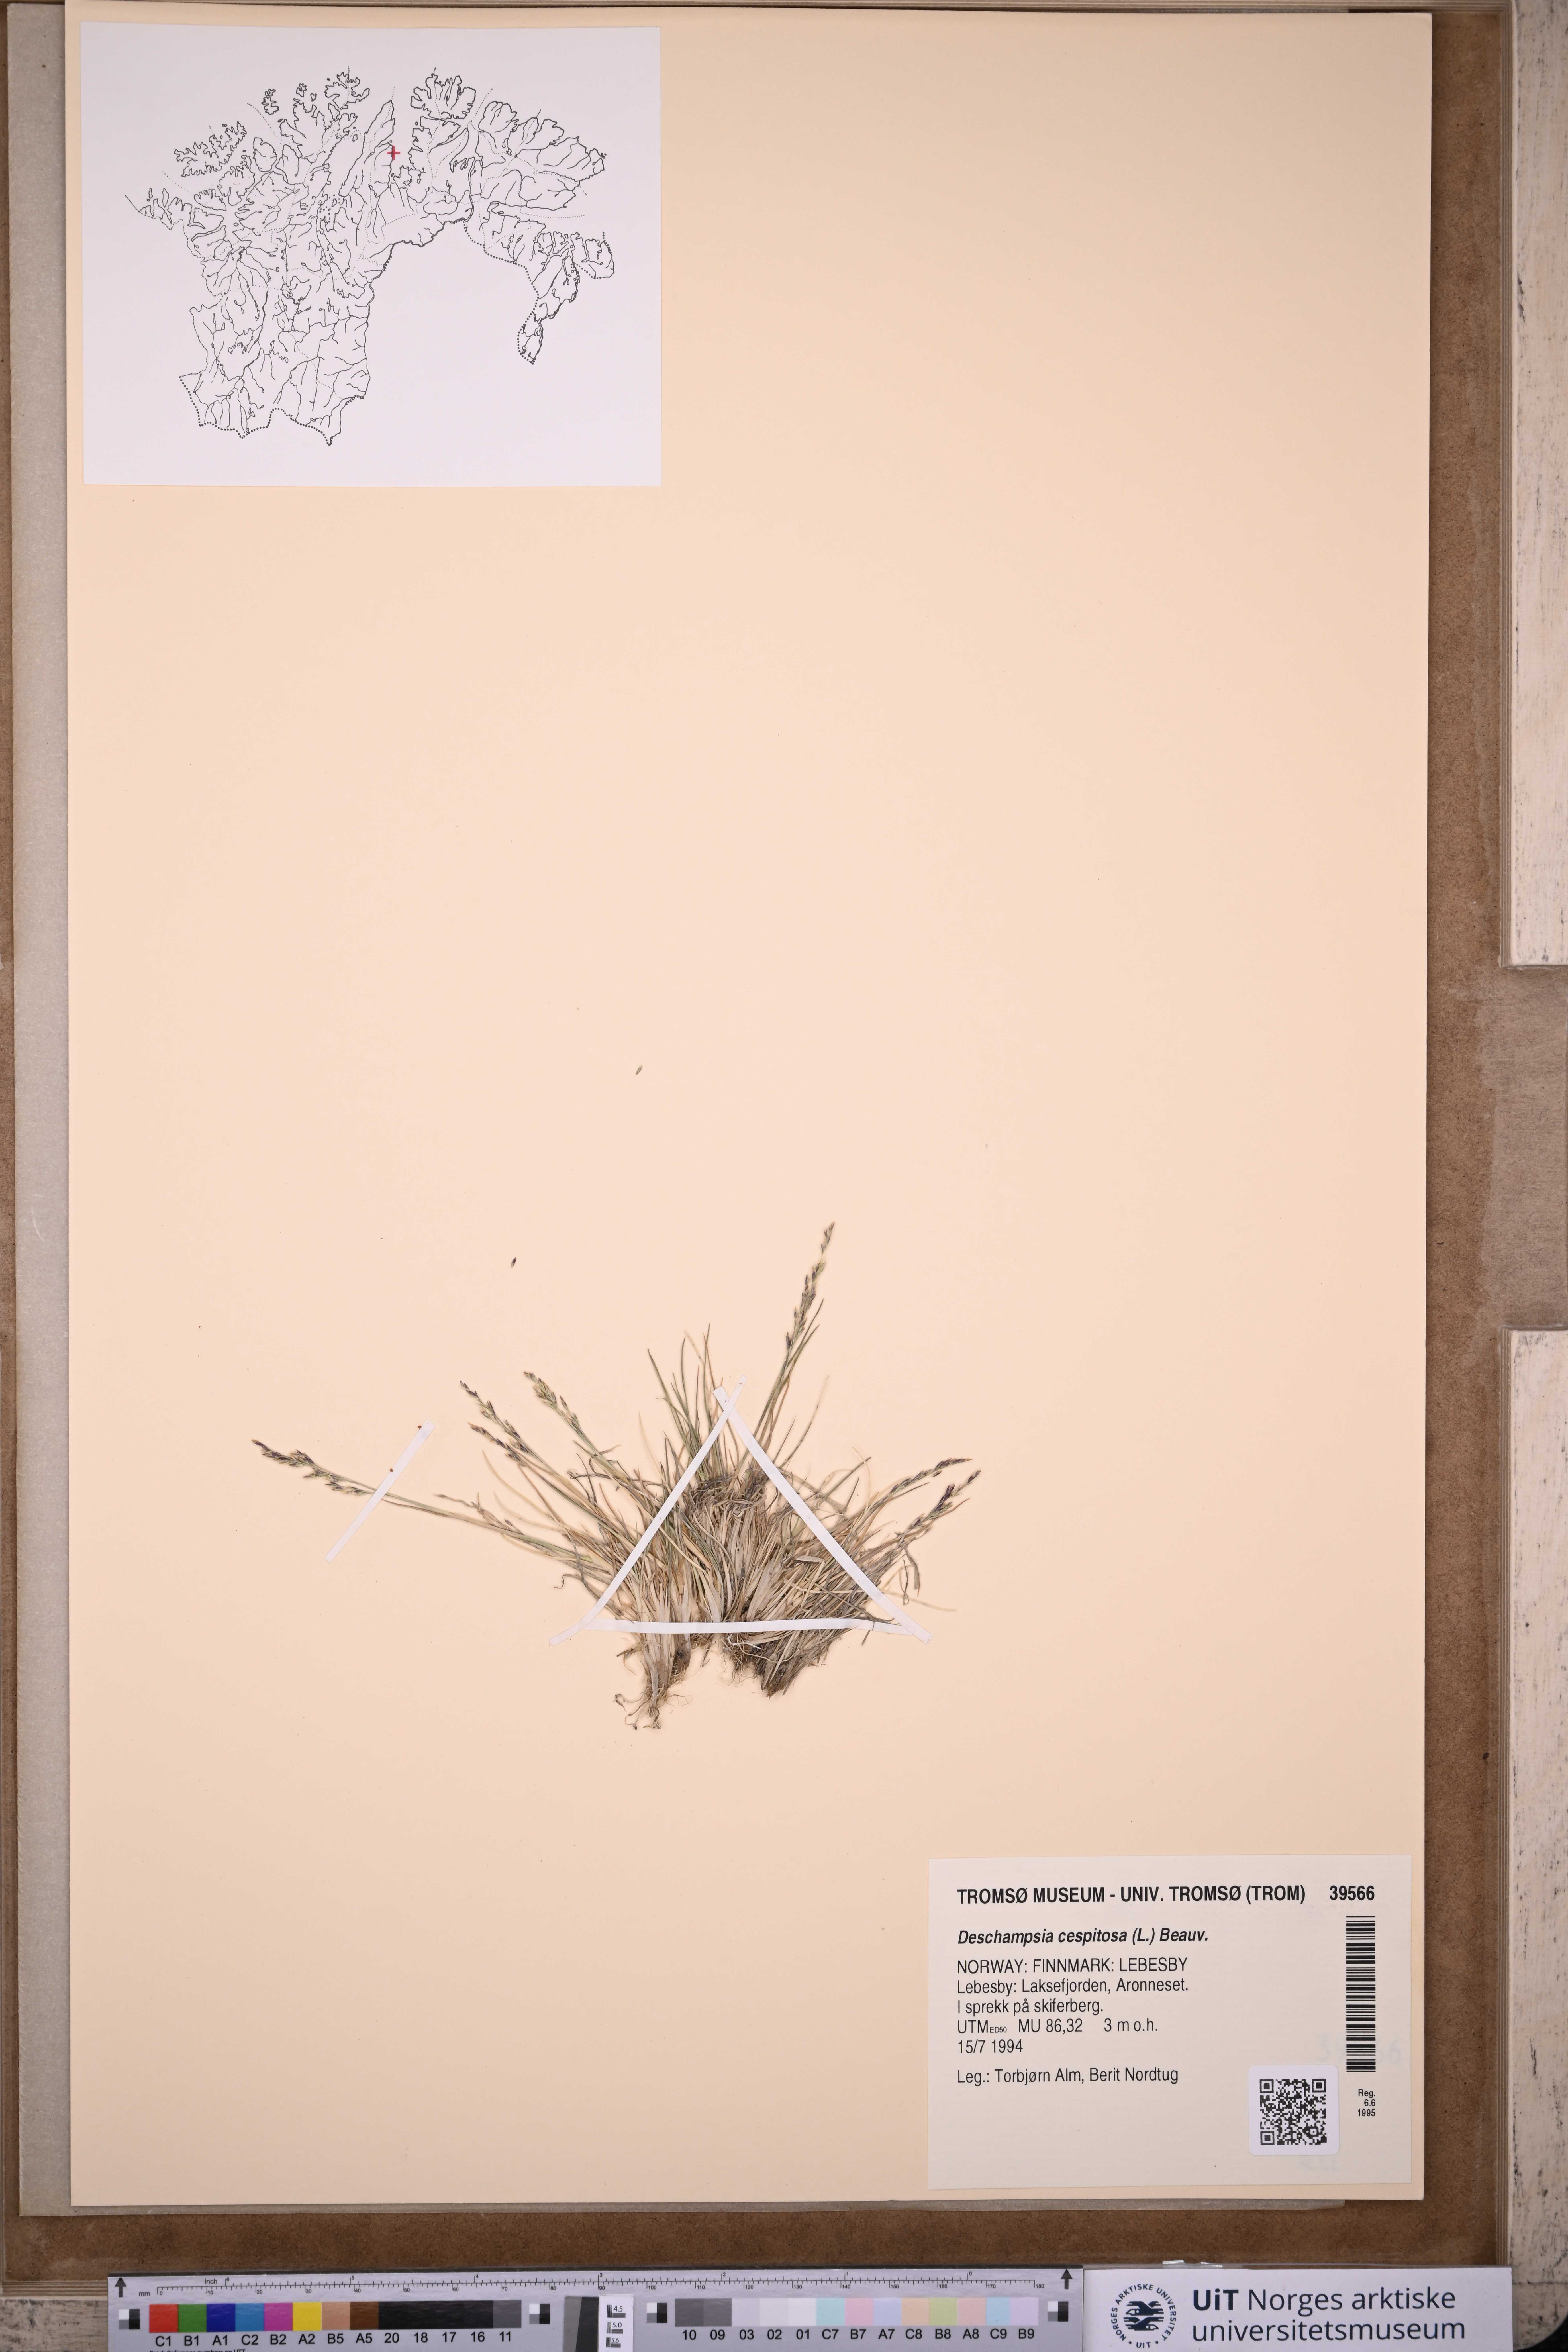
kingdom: Plantae
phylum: Tracheophyta
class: Liliopsida
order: Poales
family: Poaceae
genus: Deschampsia
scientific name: Deschampsia cespitosa
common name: Tufted hair-grass
